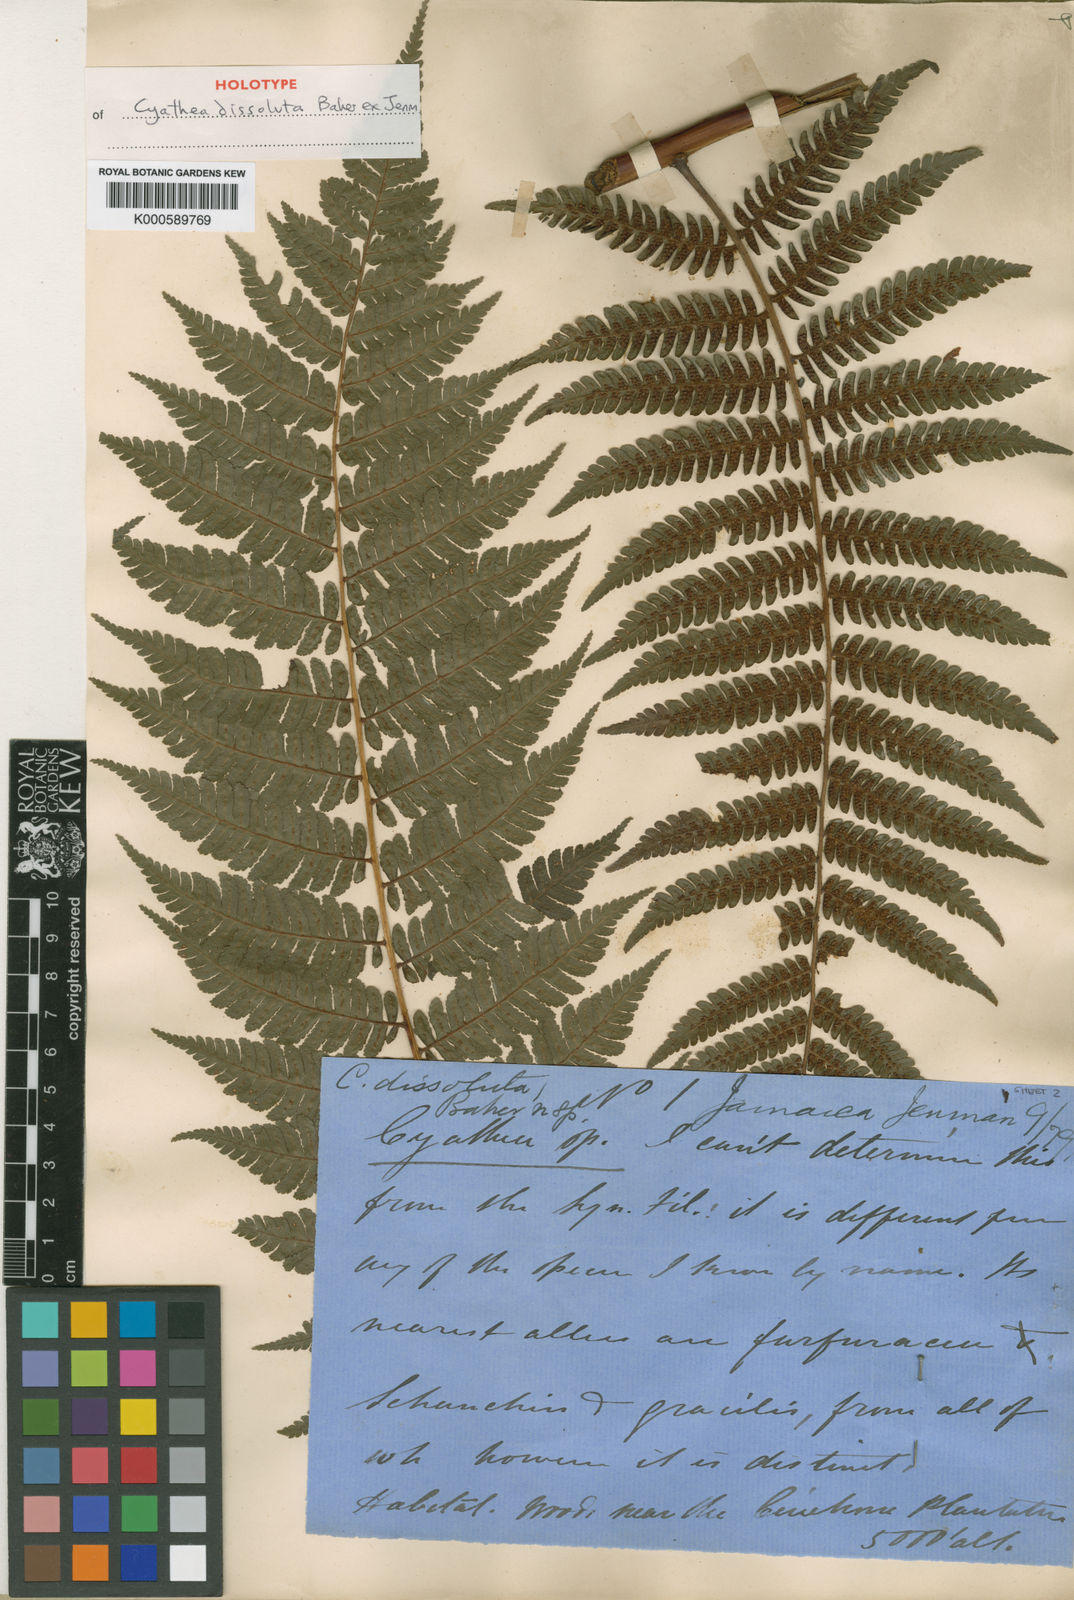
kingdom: Plantae
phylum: Tracheophyta
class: Polypodiopsida
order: Cyatheales
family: Cyatheaceae
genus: Cyathea
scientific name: Cyathea
